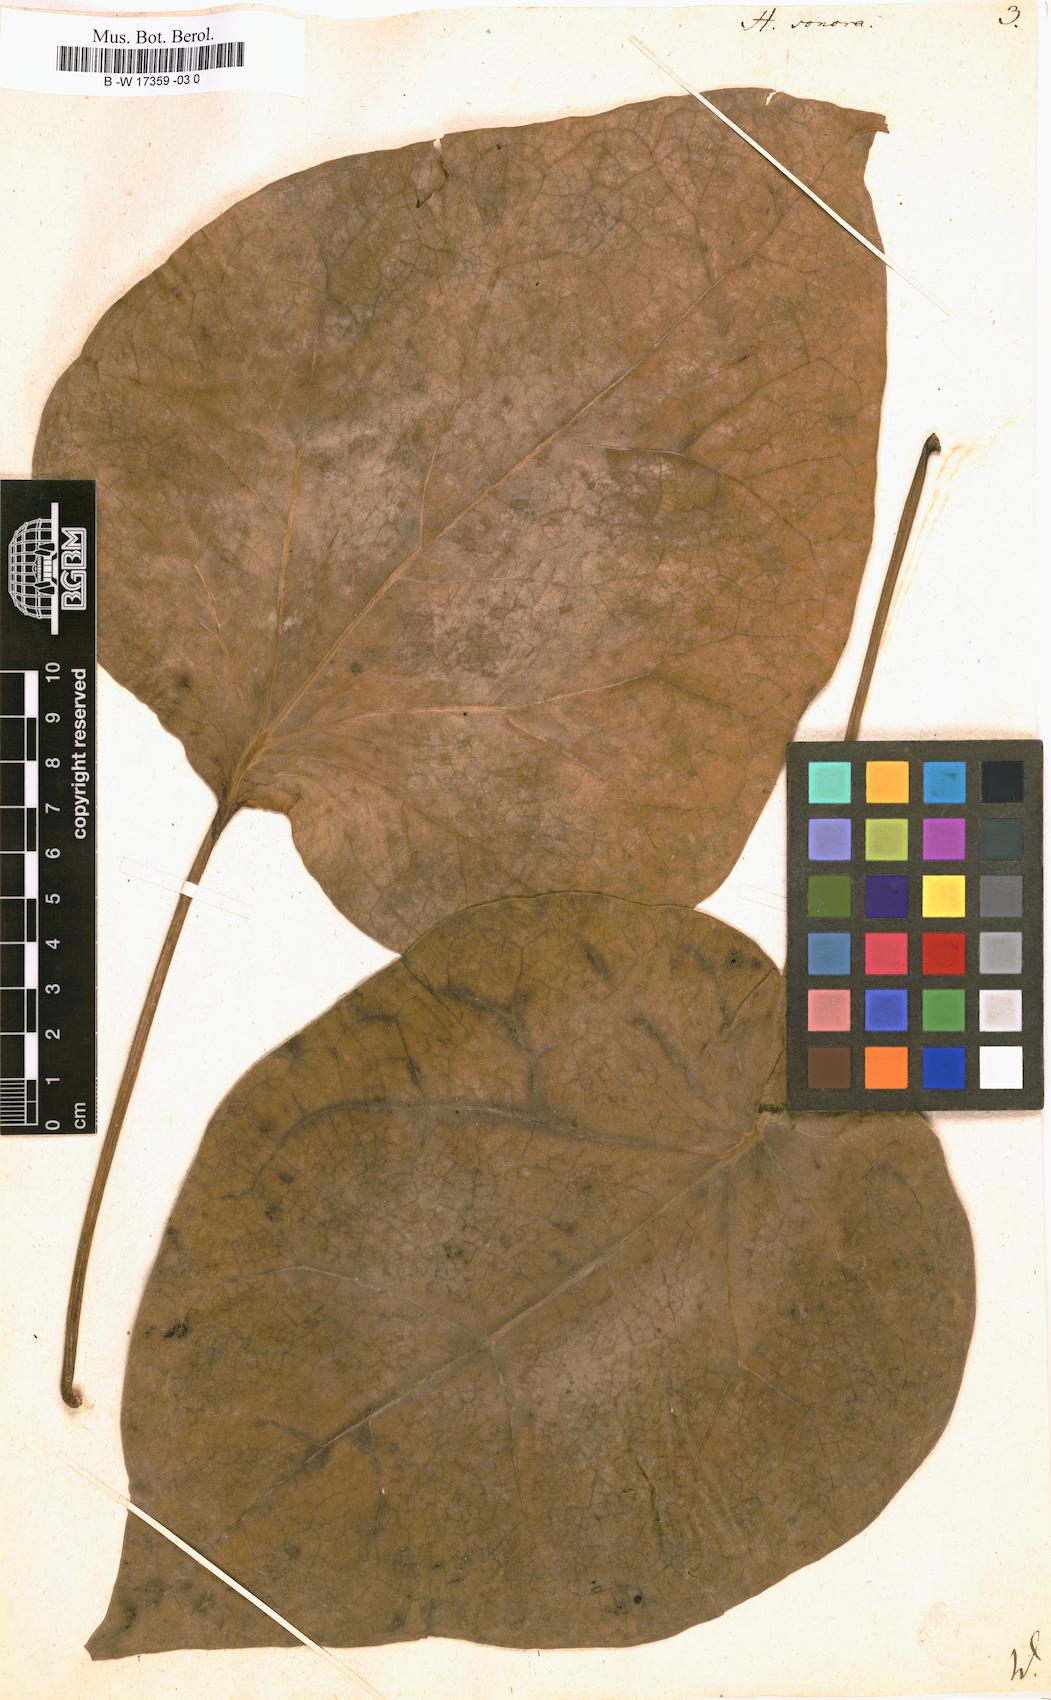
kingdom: Plantae
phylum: Tracheophyta
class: Magnoliopsida
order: Laurales
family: Hernandiaceae
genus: Hernandia
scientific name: Hernandia sonora
